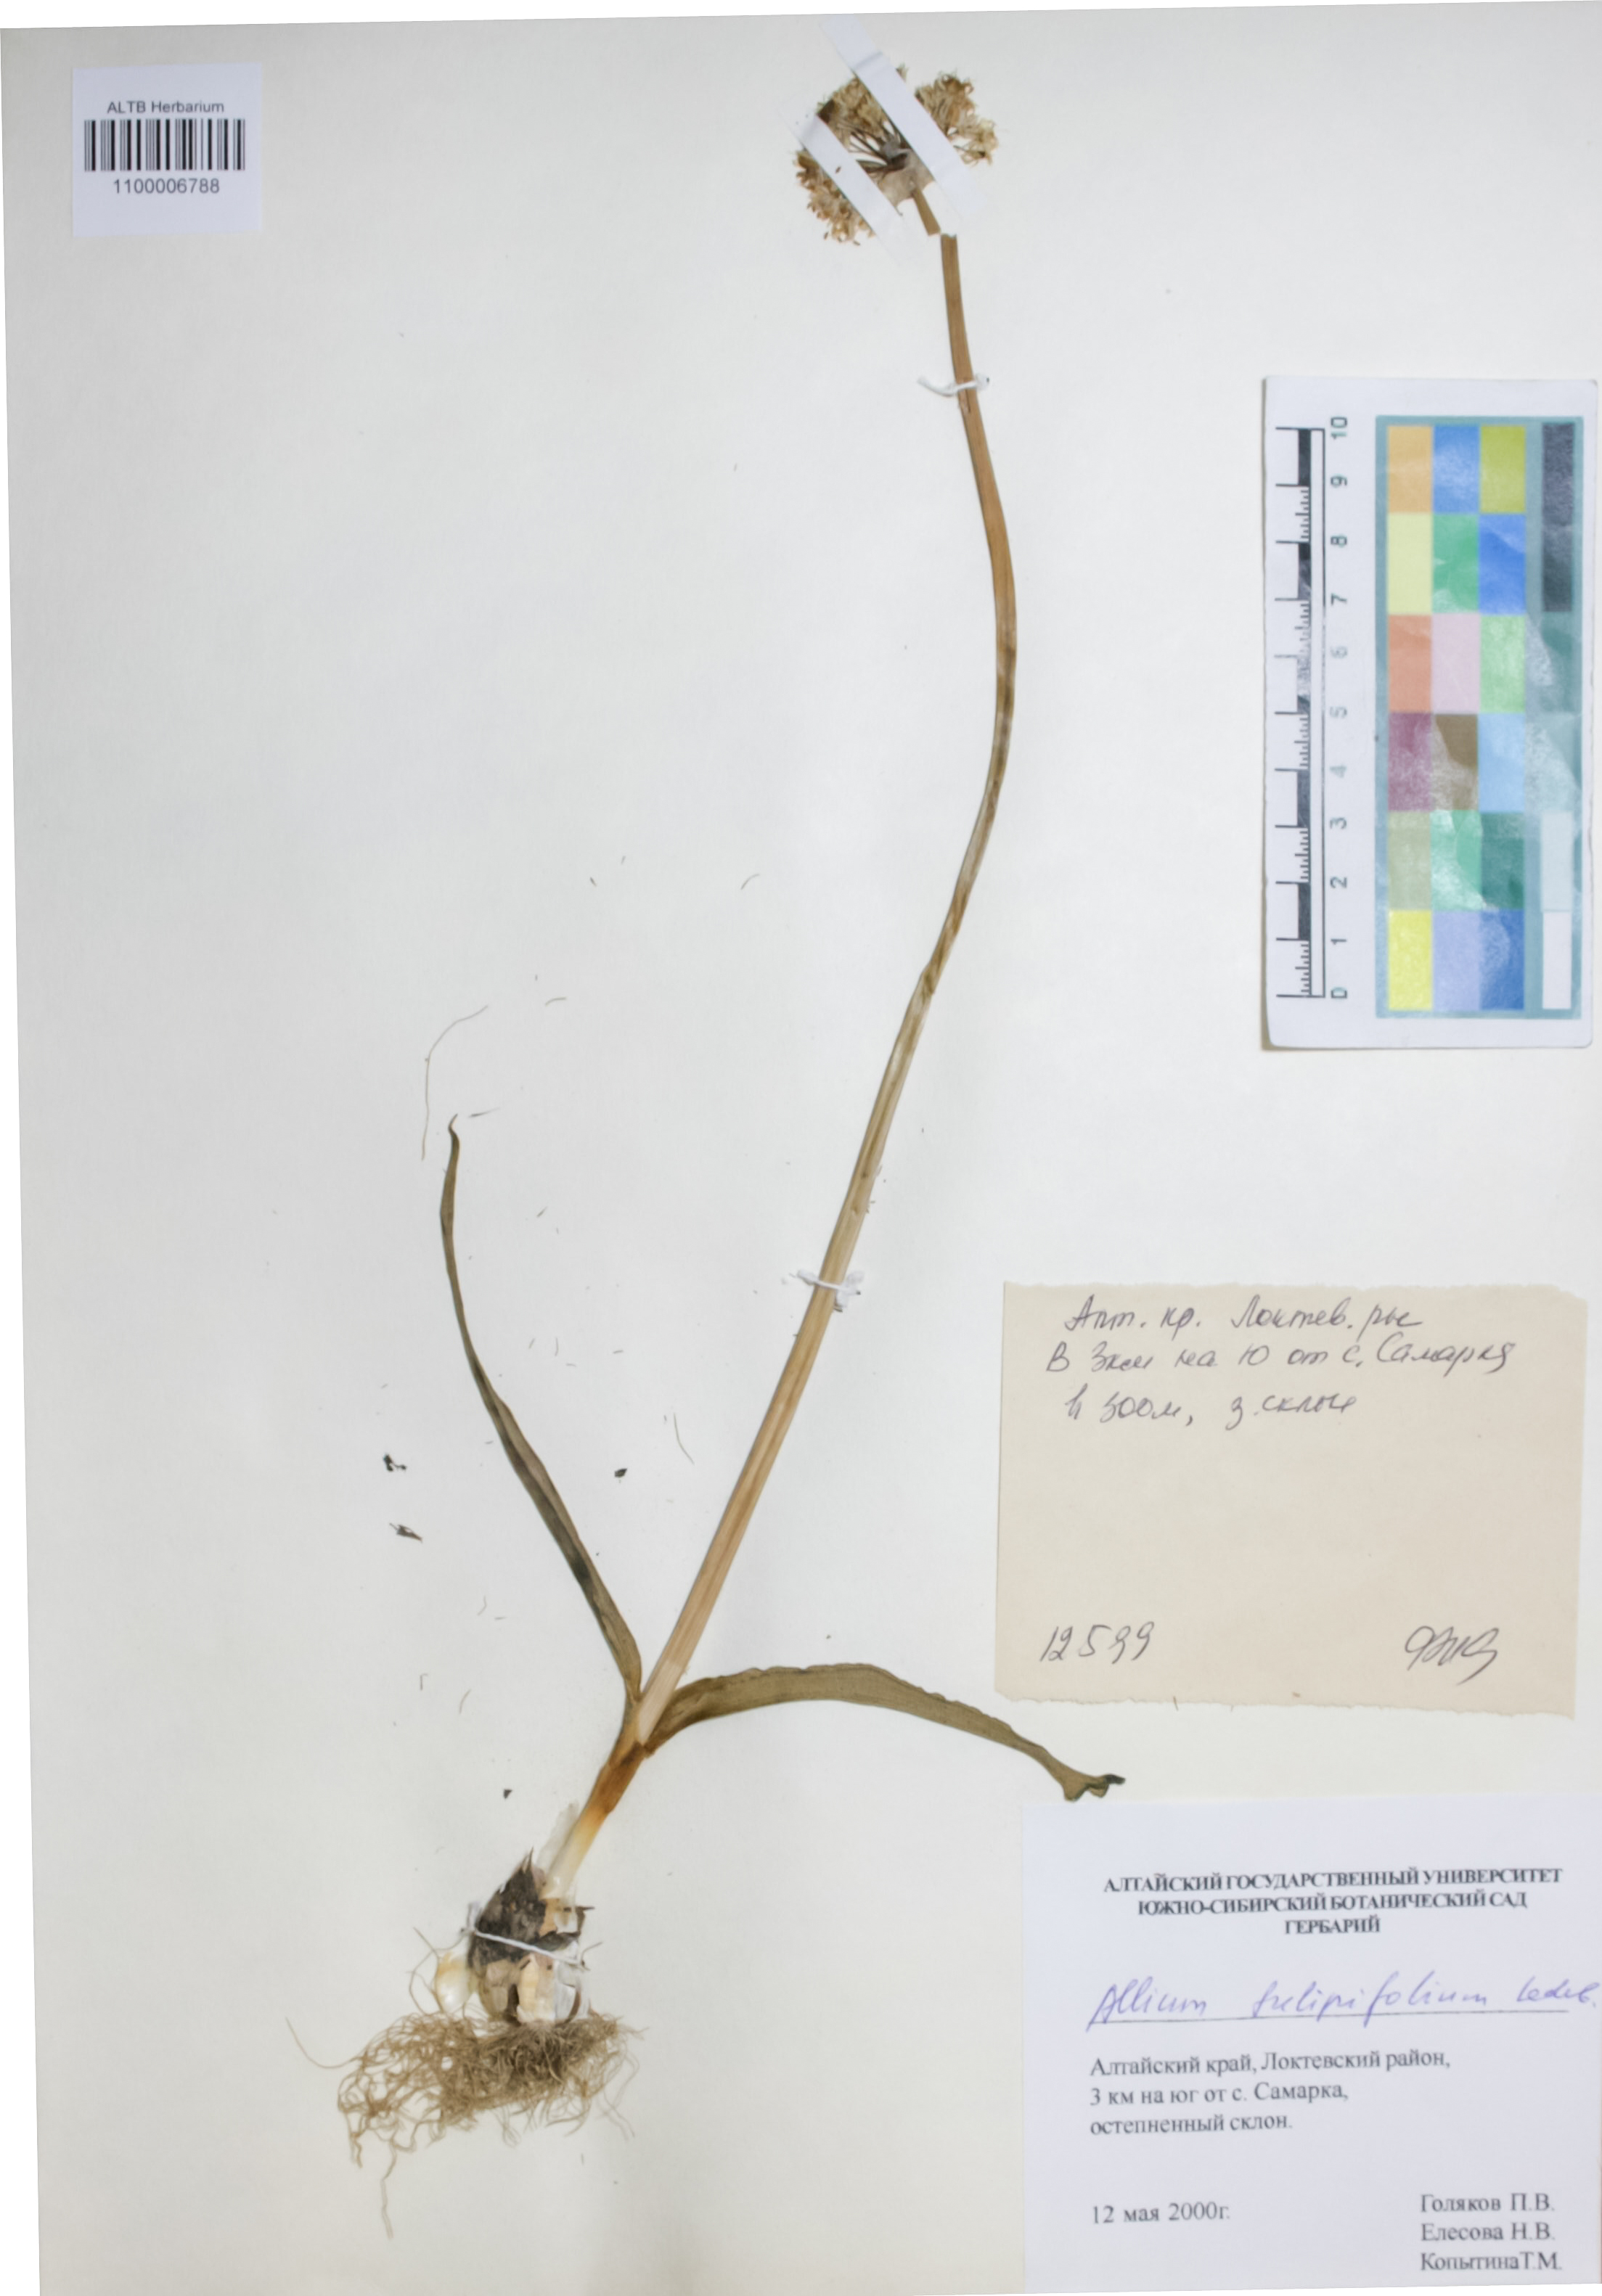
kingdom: Plantae
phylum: Tracheophyta
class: Liliopsida
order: Asparagales
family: Amaryllidaceae
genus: Allium
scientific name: Allium
